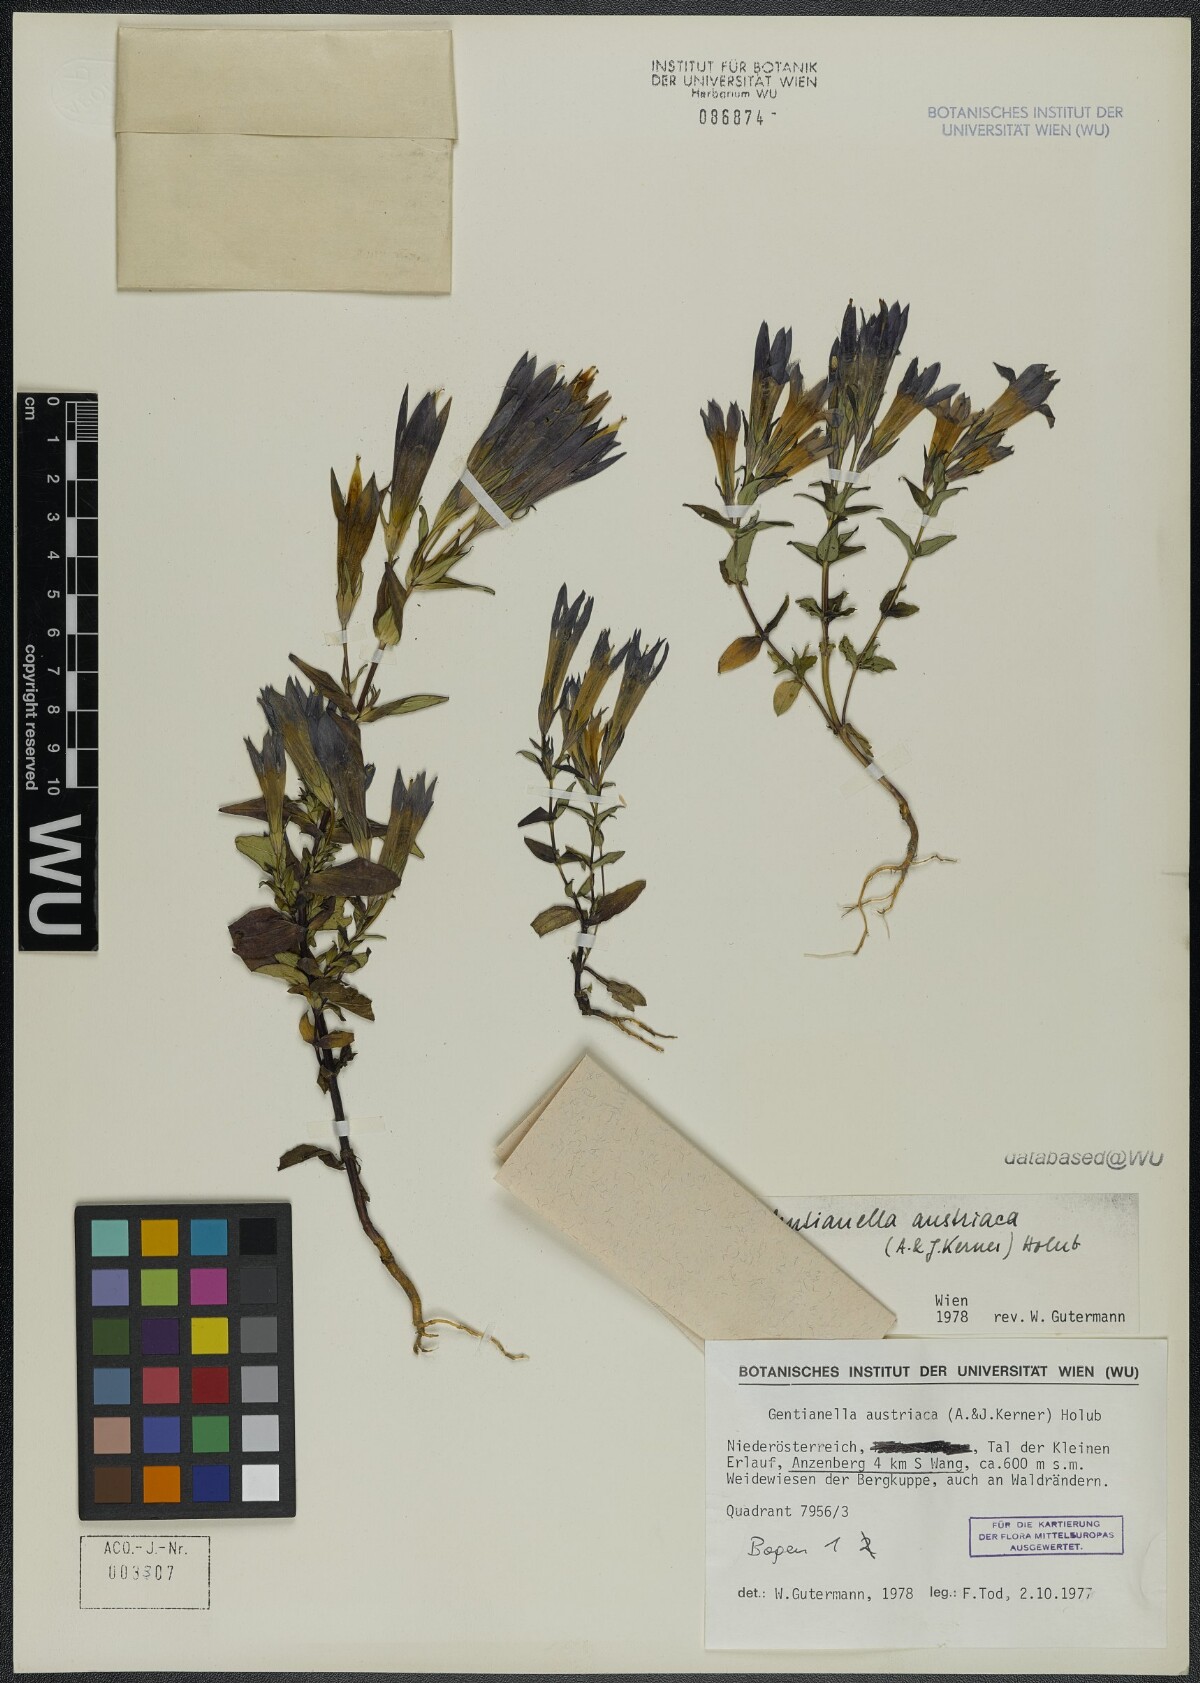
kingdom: Plantae
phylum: Tracheophyta
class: Magnoliopsida
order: Gentianales
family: Gentianaceae
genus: Gentianella
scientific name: Gentianella austriaca
